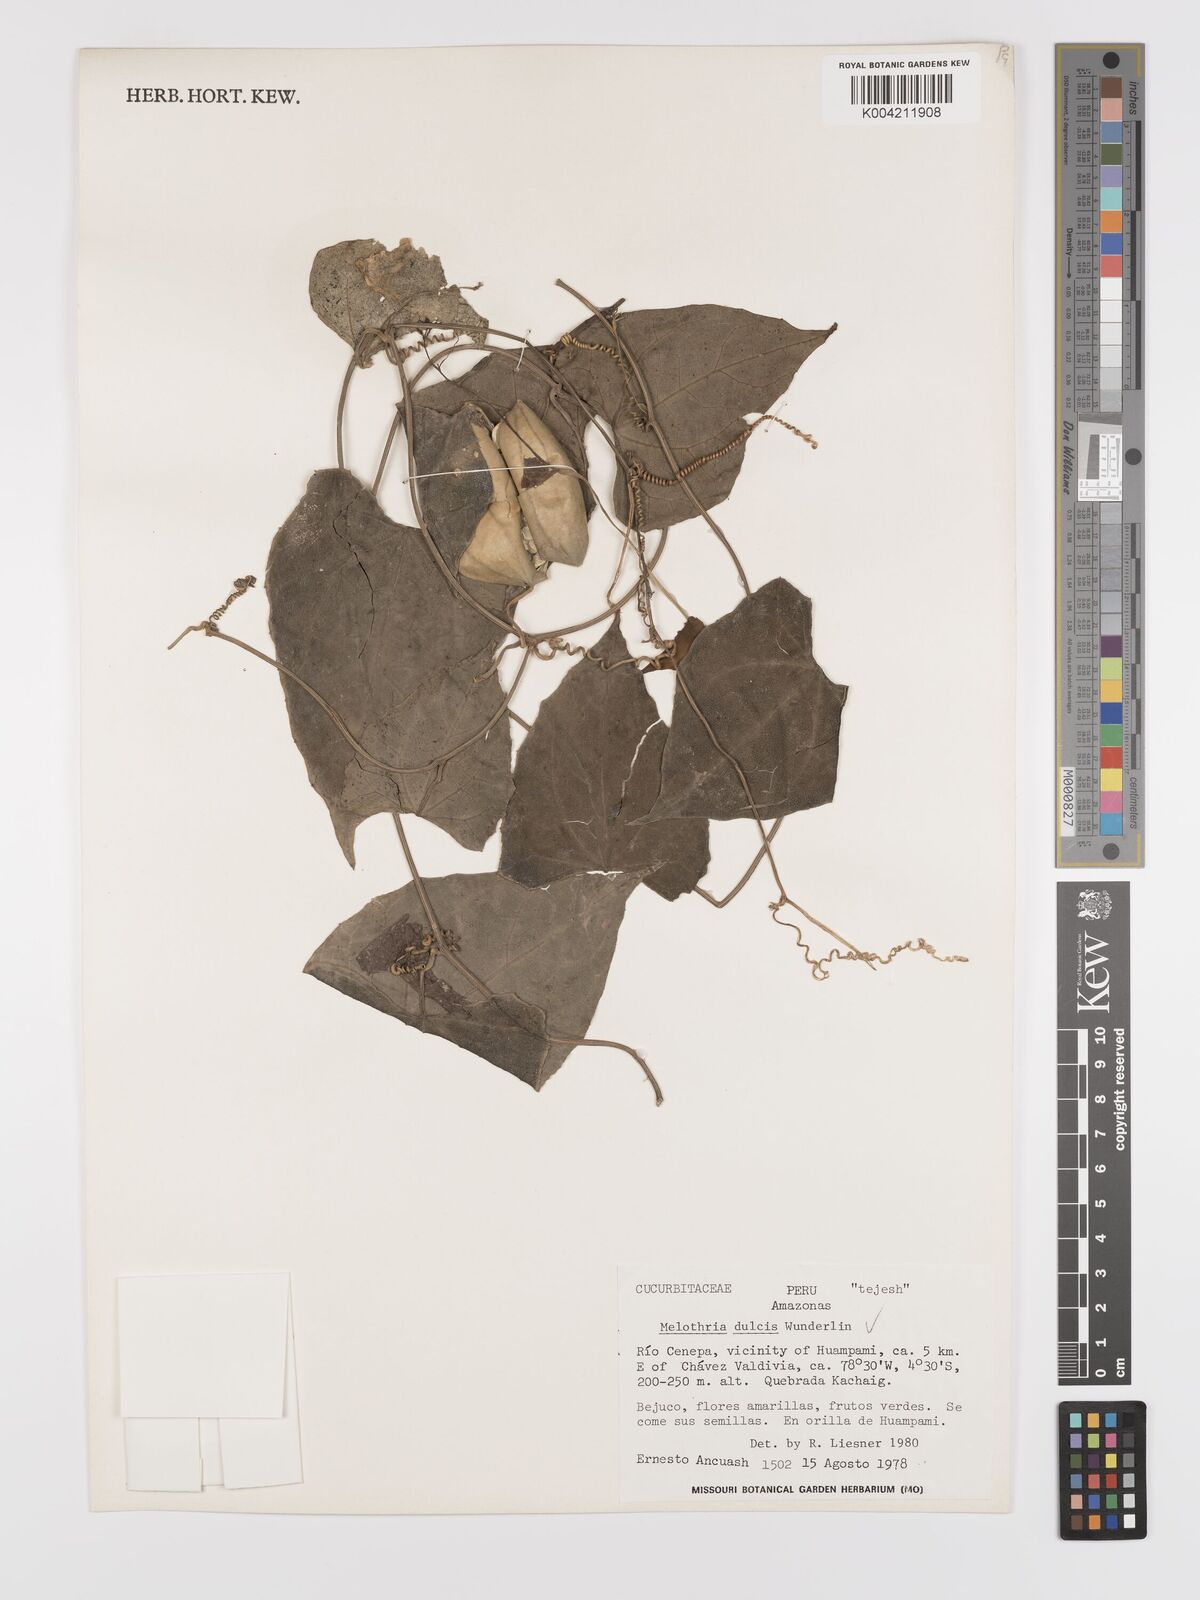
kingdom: Plantae
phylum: Tracheophyta
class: Magnoliopsida
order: Cucurbitales
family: Cucurbitaceae
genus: Melothria
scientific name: Melothria dulcis
